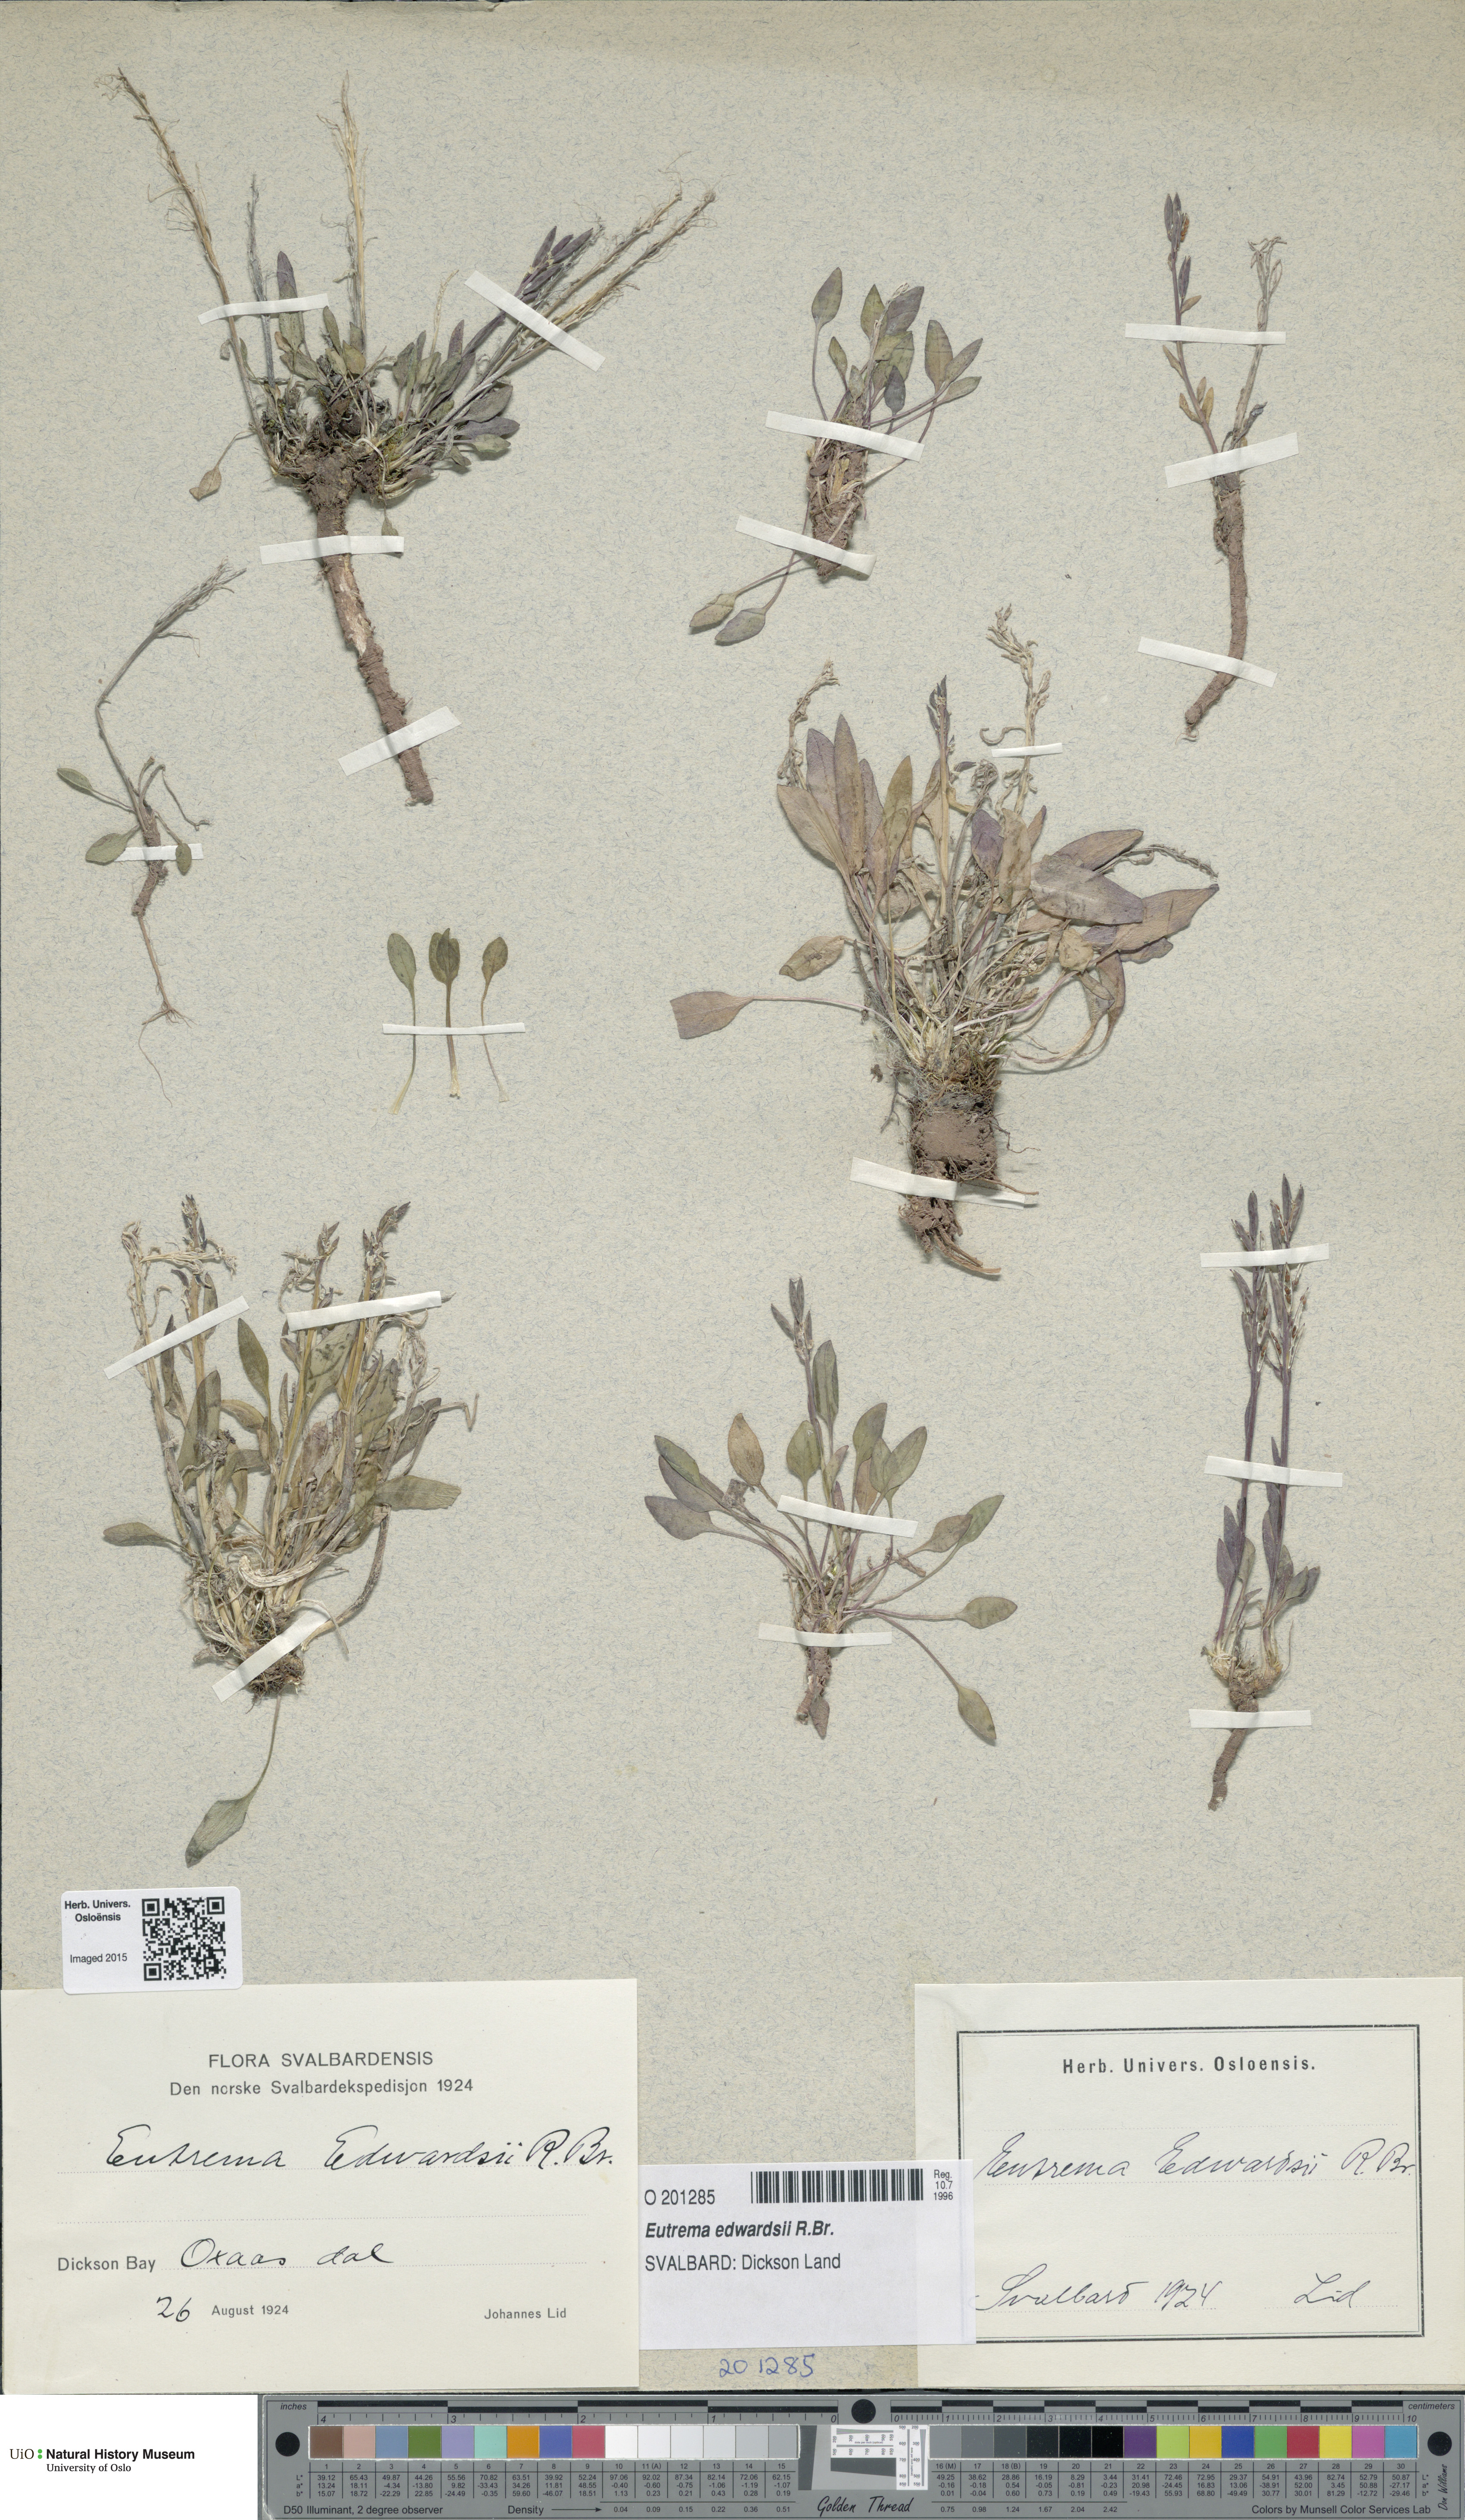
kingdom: Plantae
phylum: Tracheophyta
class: Magnoliopsida
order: Brassicales
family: Brassicaceae
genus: Eutrema
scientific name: Eutrema edwardsii
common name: Penland alpine fen mustard
